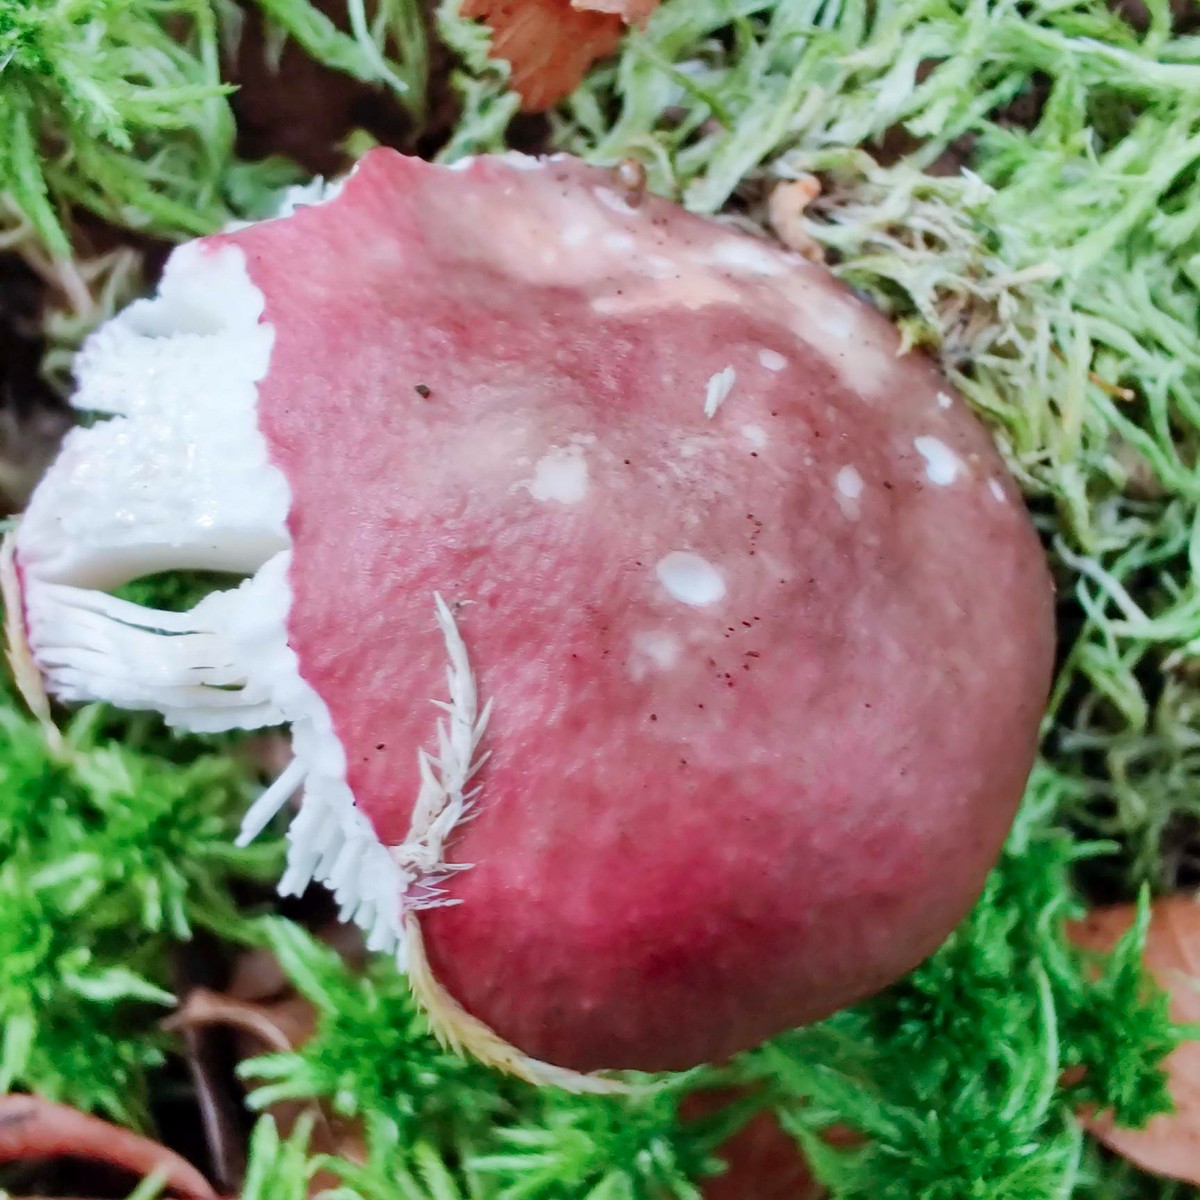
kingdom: Fungi
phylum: Basidiomycota
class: Agaricomycetes
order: Russulales
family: Russulaceae
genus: Russula
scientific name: Russula
